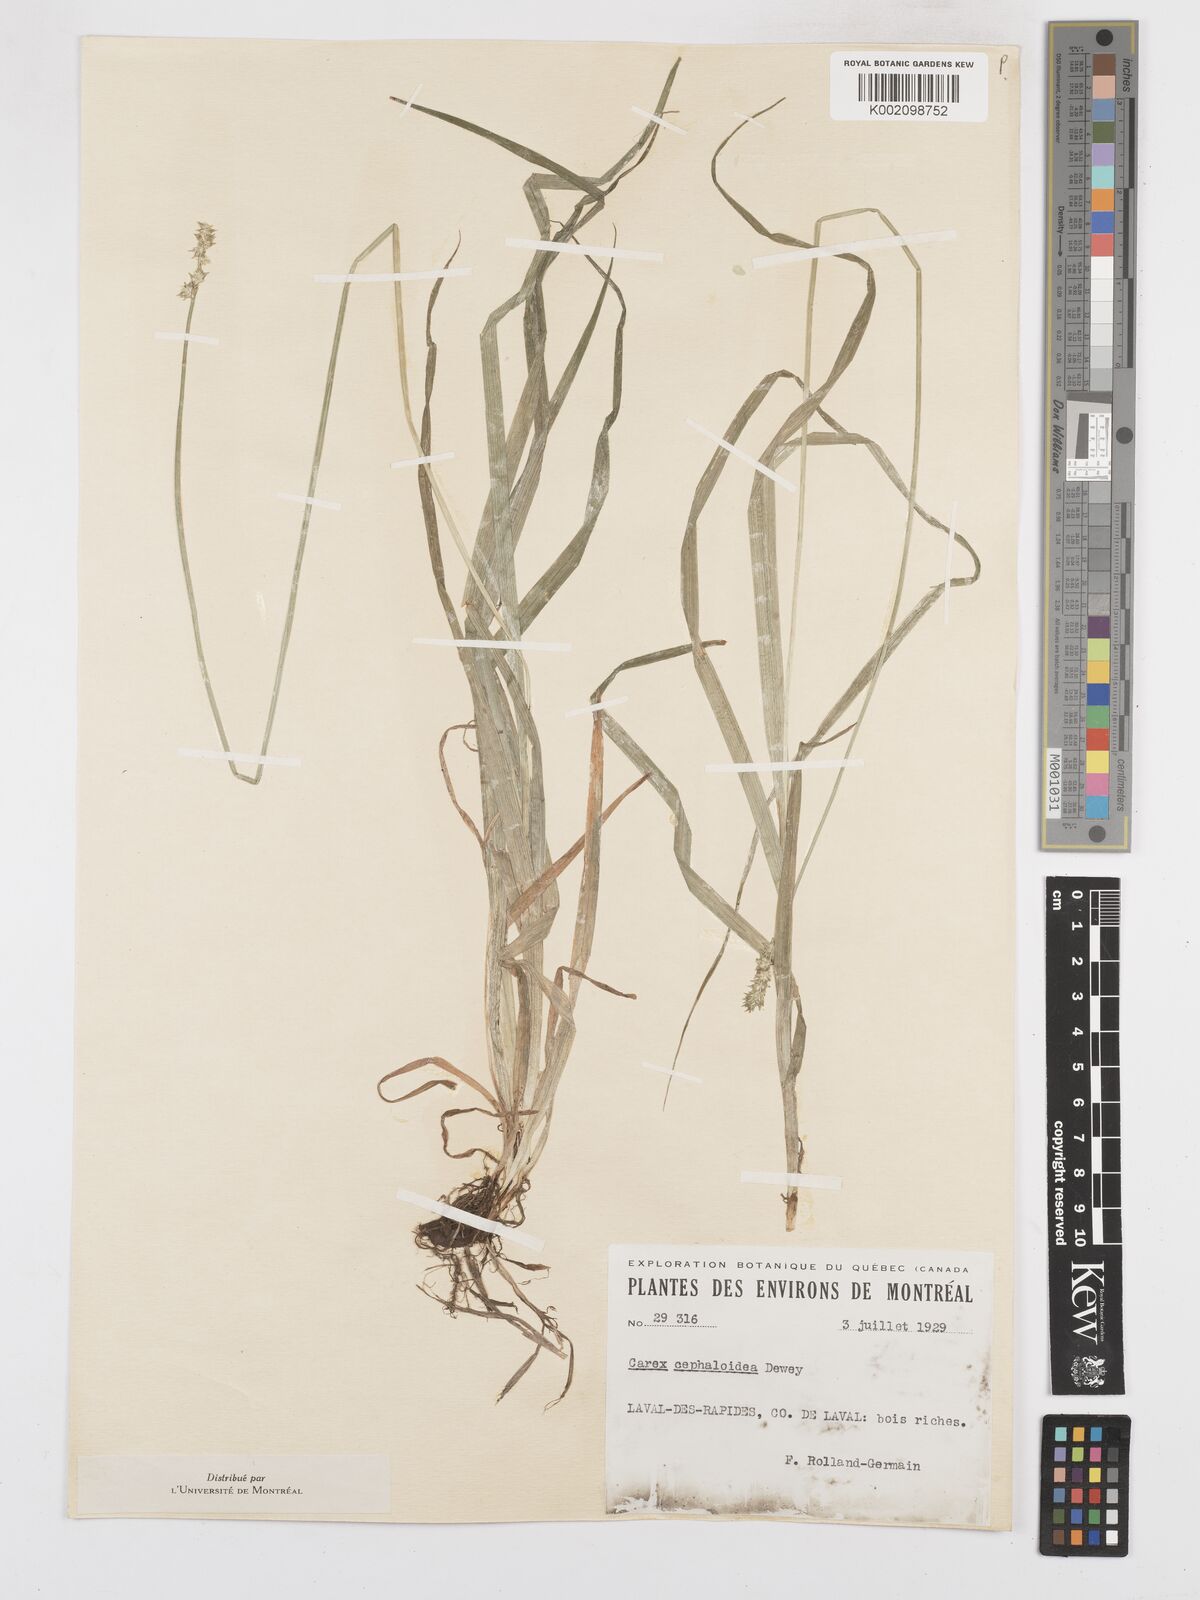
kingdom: Plantae
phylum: Tracheophyta
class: Liliopsida
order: Poales
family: Cyperaceae
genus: Carex
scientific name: Carex sparganioides
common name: Burreed sedge
